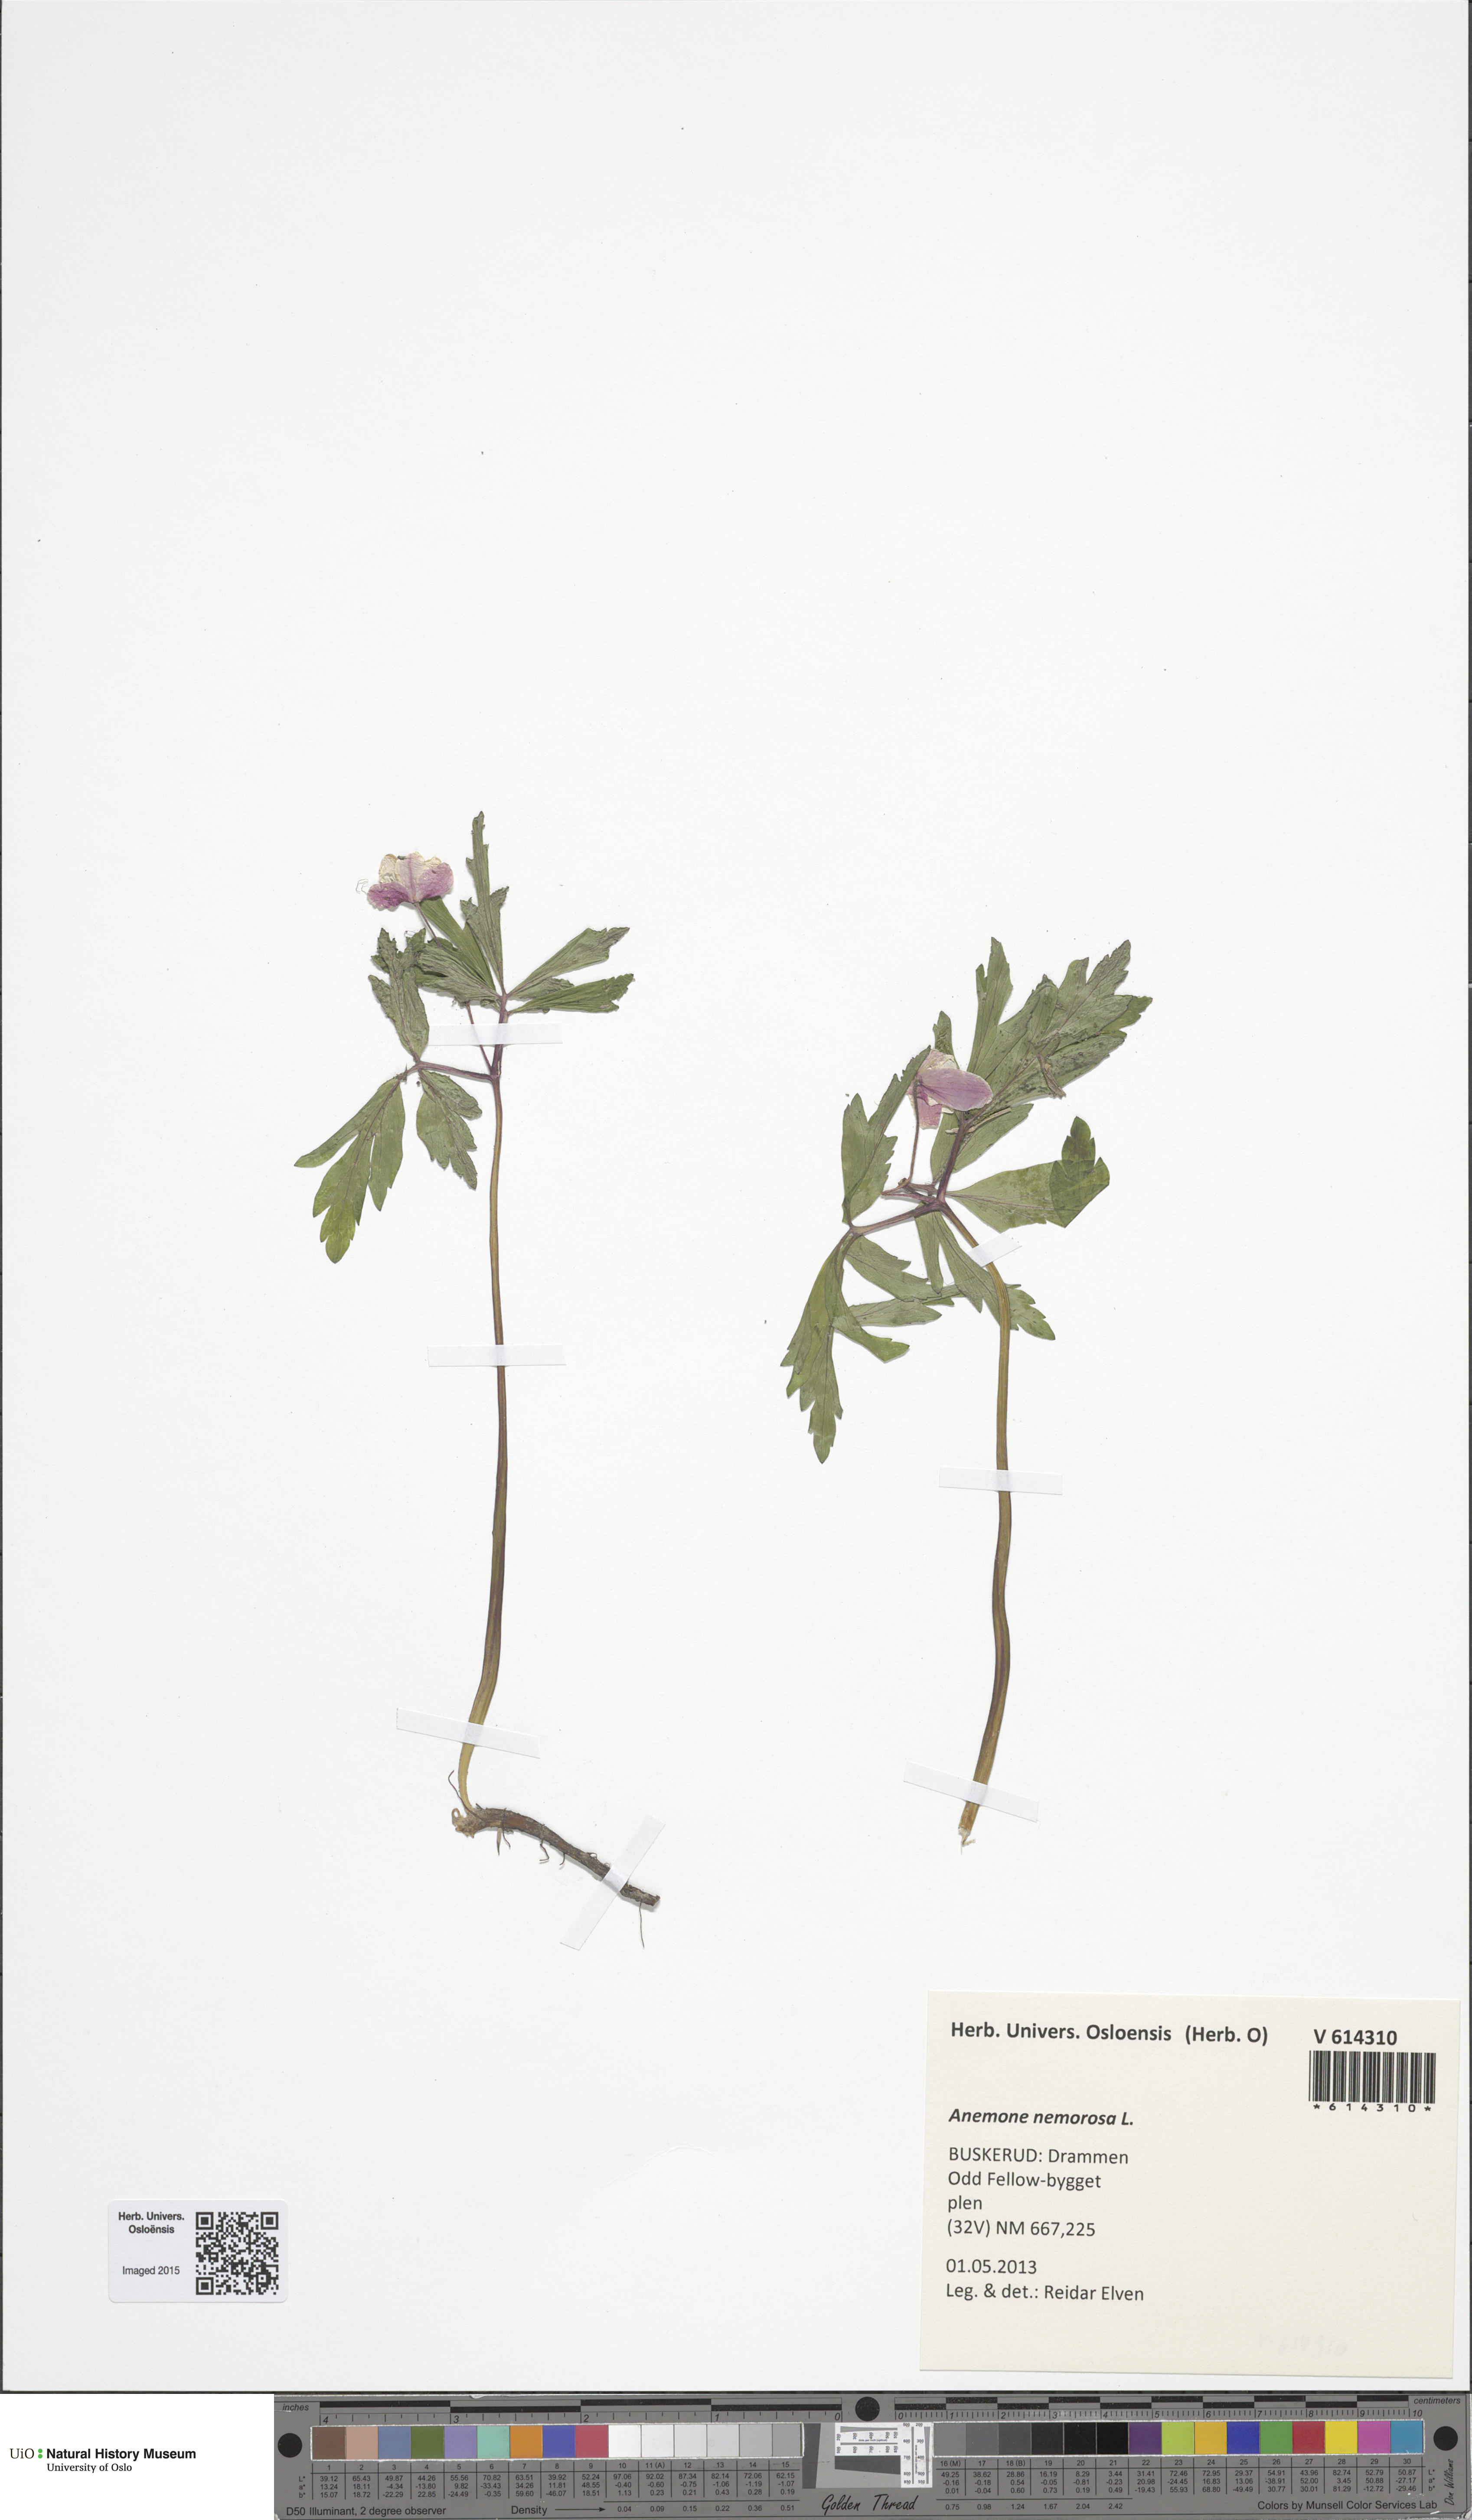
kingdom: Plantae
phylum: Tracheophyta
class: Magnoliopsida
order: Ranunculales
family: Ranunculaceae
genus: Anemone
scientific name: Anemone nemorosa
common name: Wood anemone
